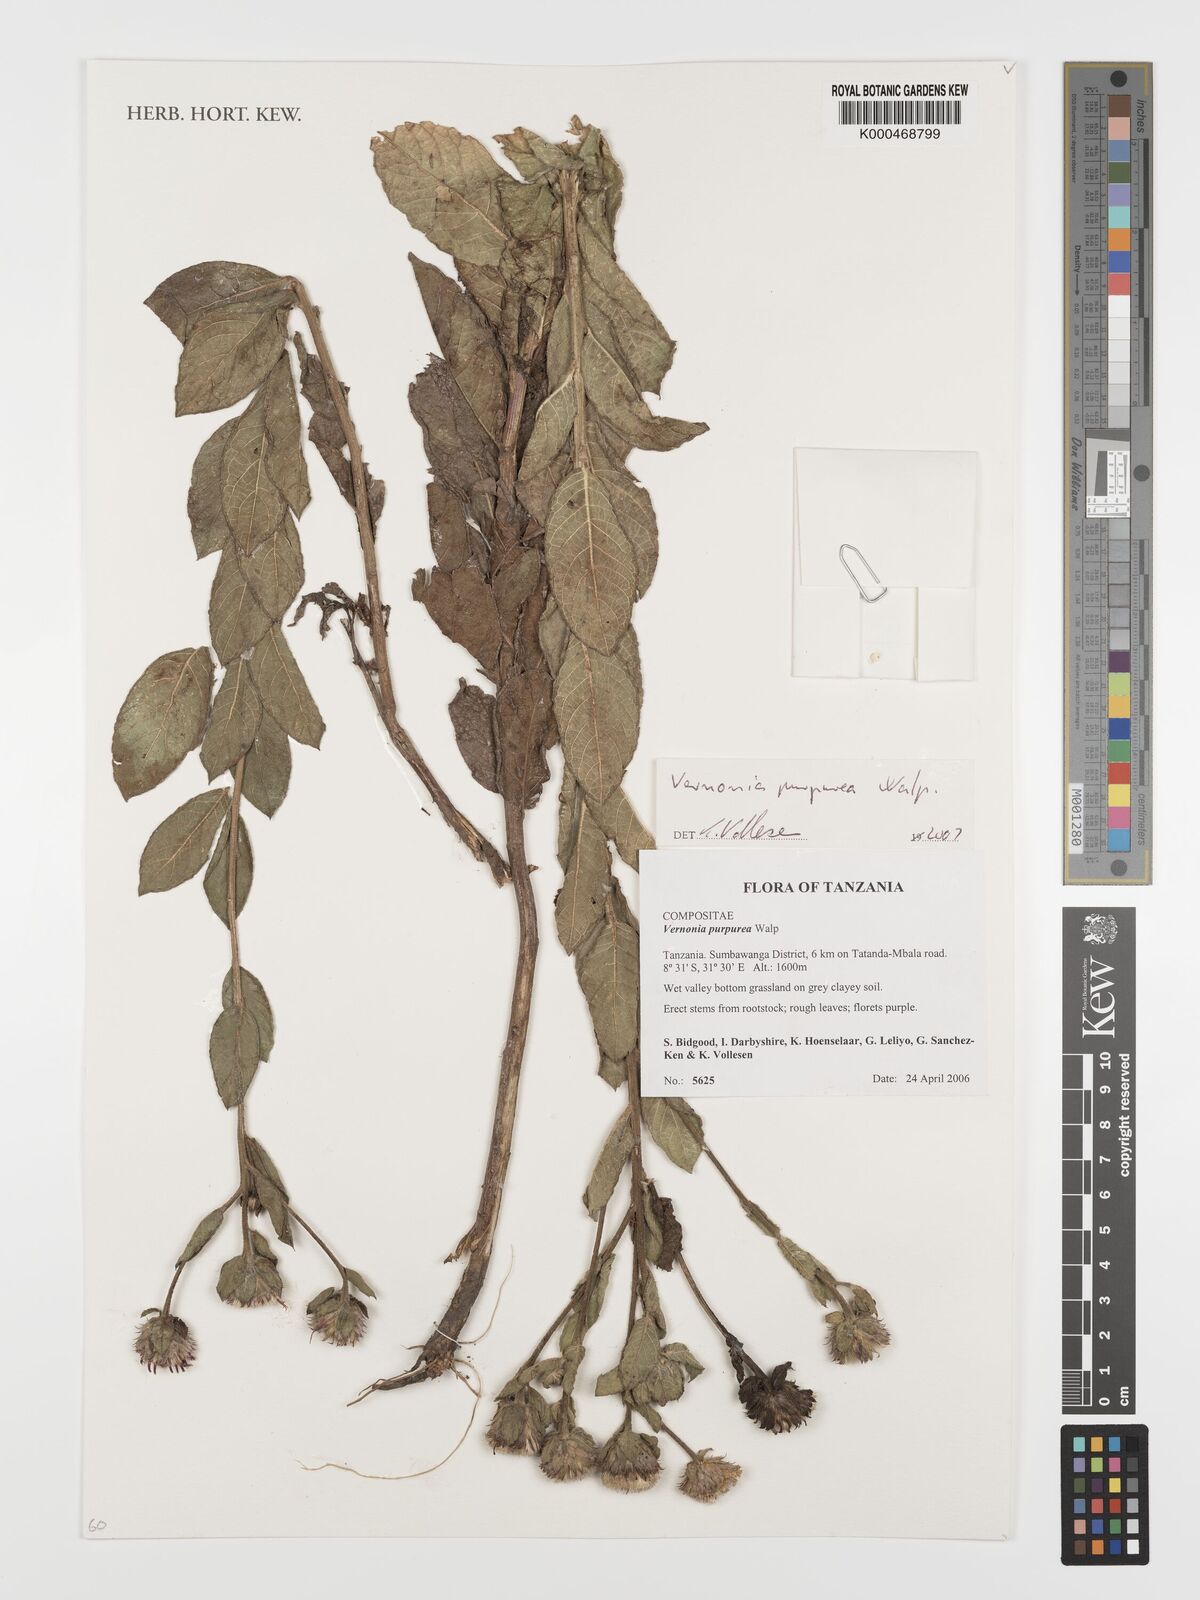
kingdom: Plantae
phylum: Tracheophyta
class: Magnoliopsida
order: Asterales
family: Asteraceae
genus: Nothovernonia
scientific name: Nothovernonia purpurea
